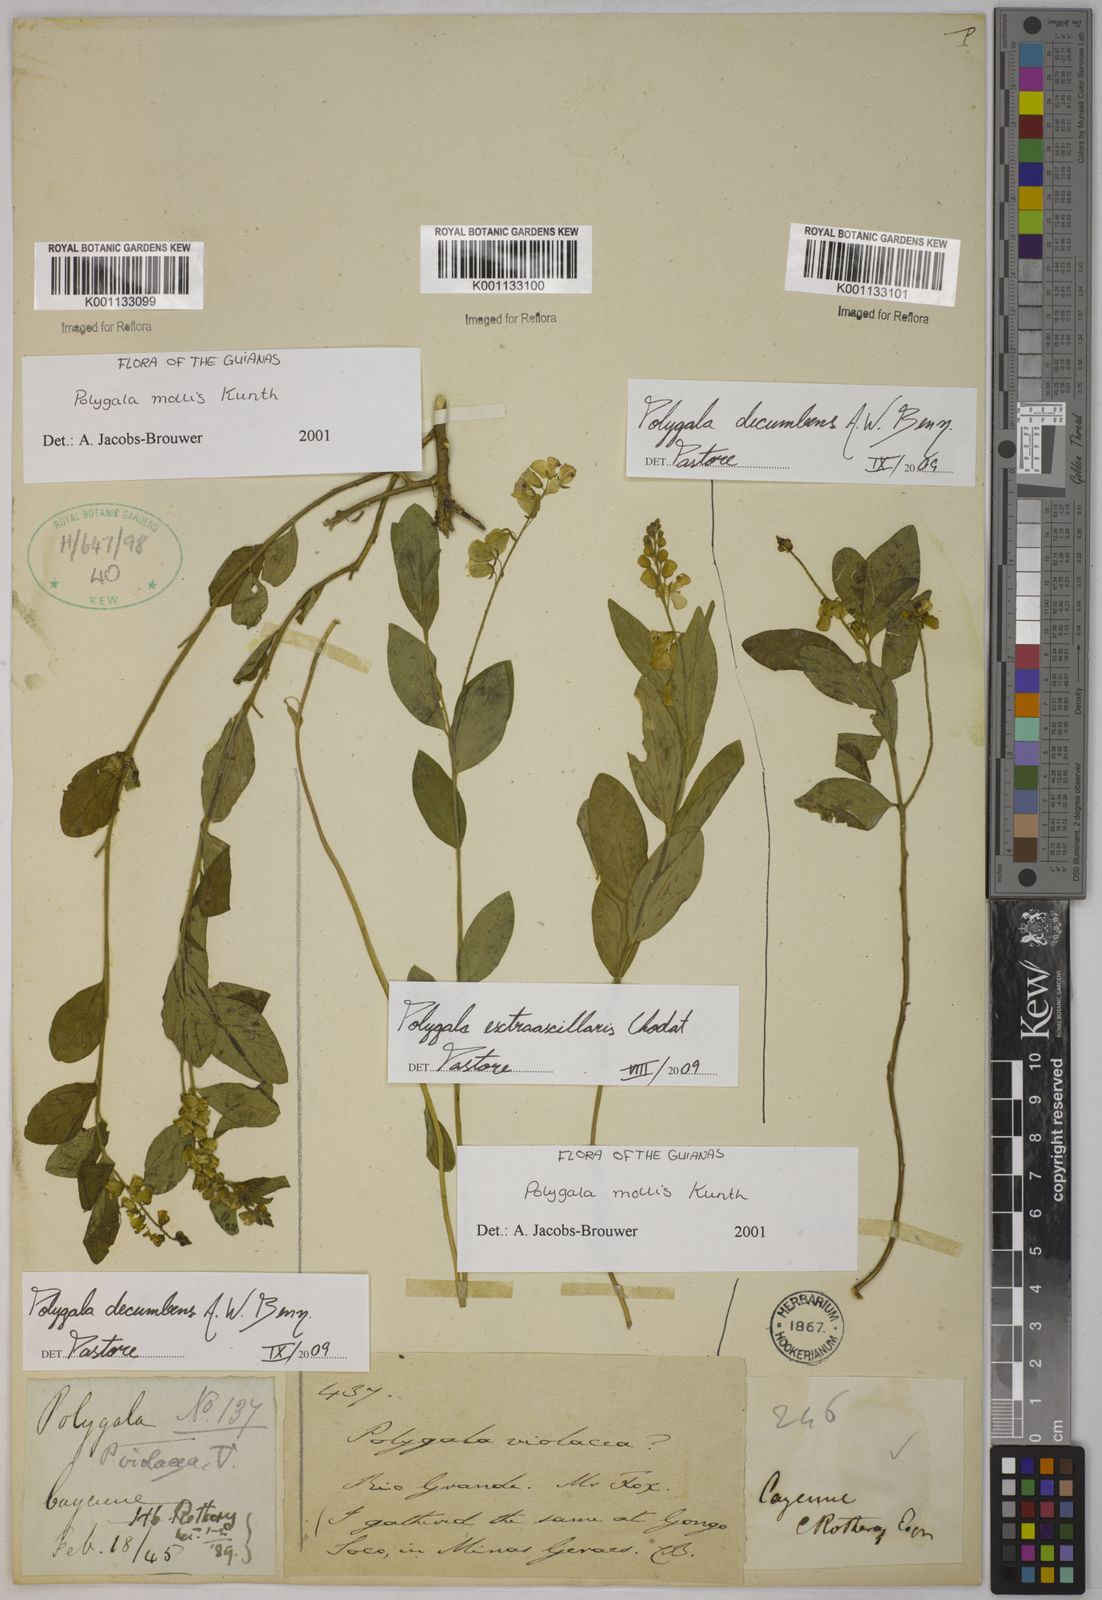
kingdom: Plantae
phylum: Tracheophyta
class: Magnoliopsida
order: Fabales
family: Polygalaceae
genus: Asemeia
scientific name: Asemeia ovata
